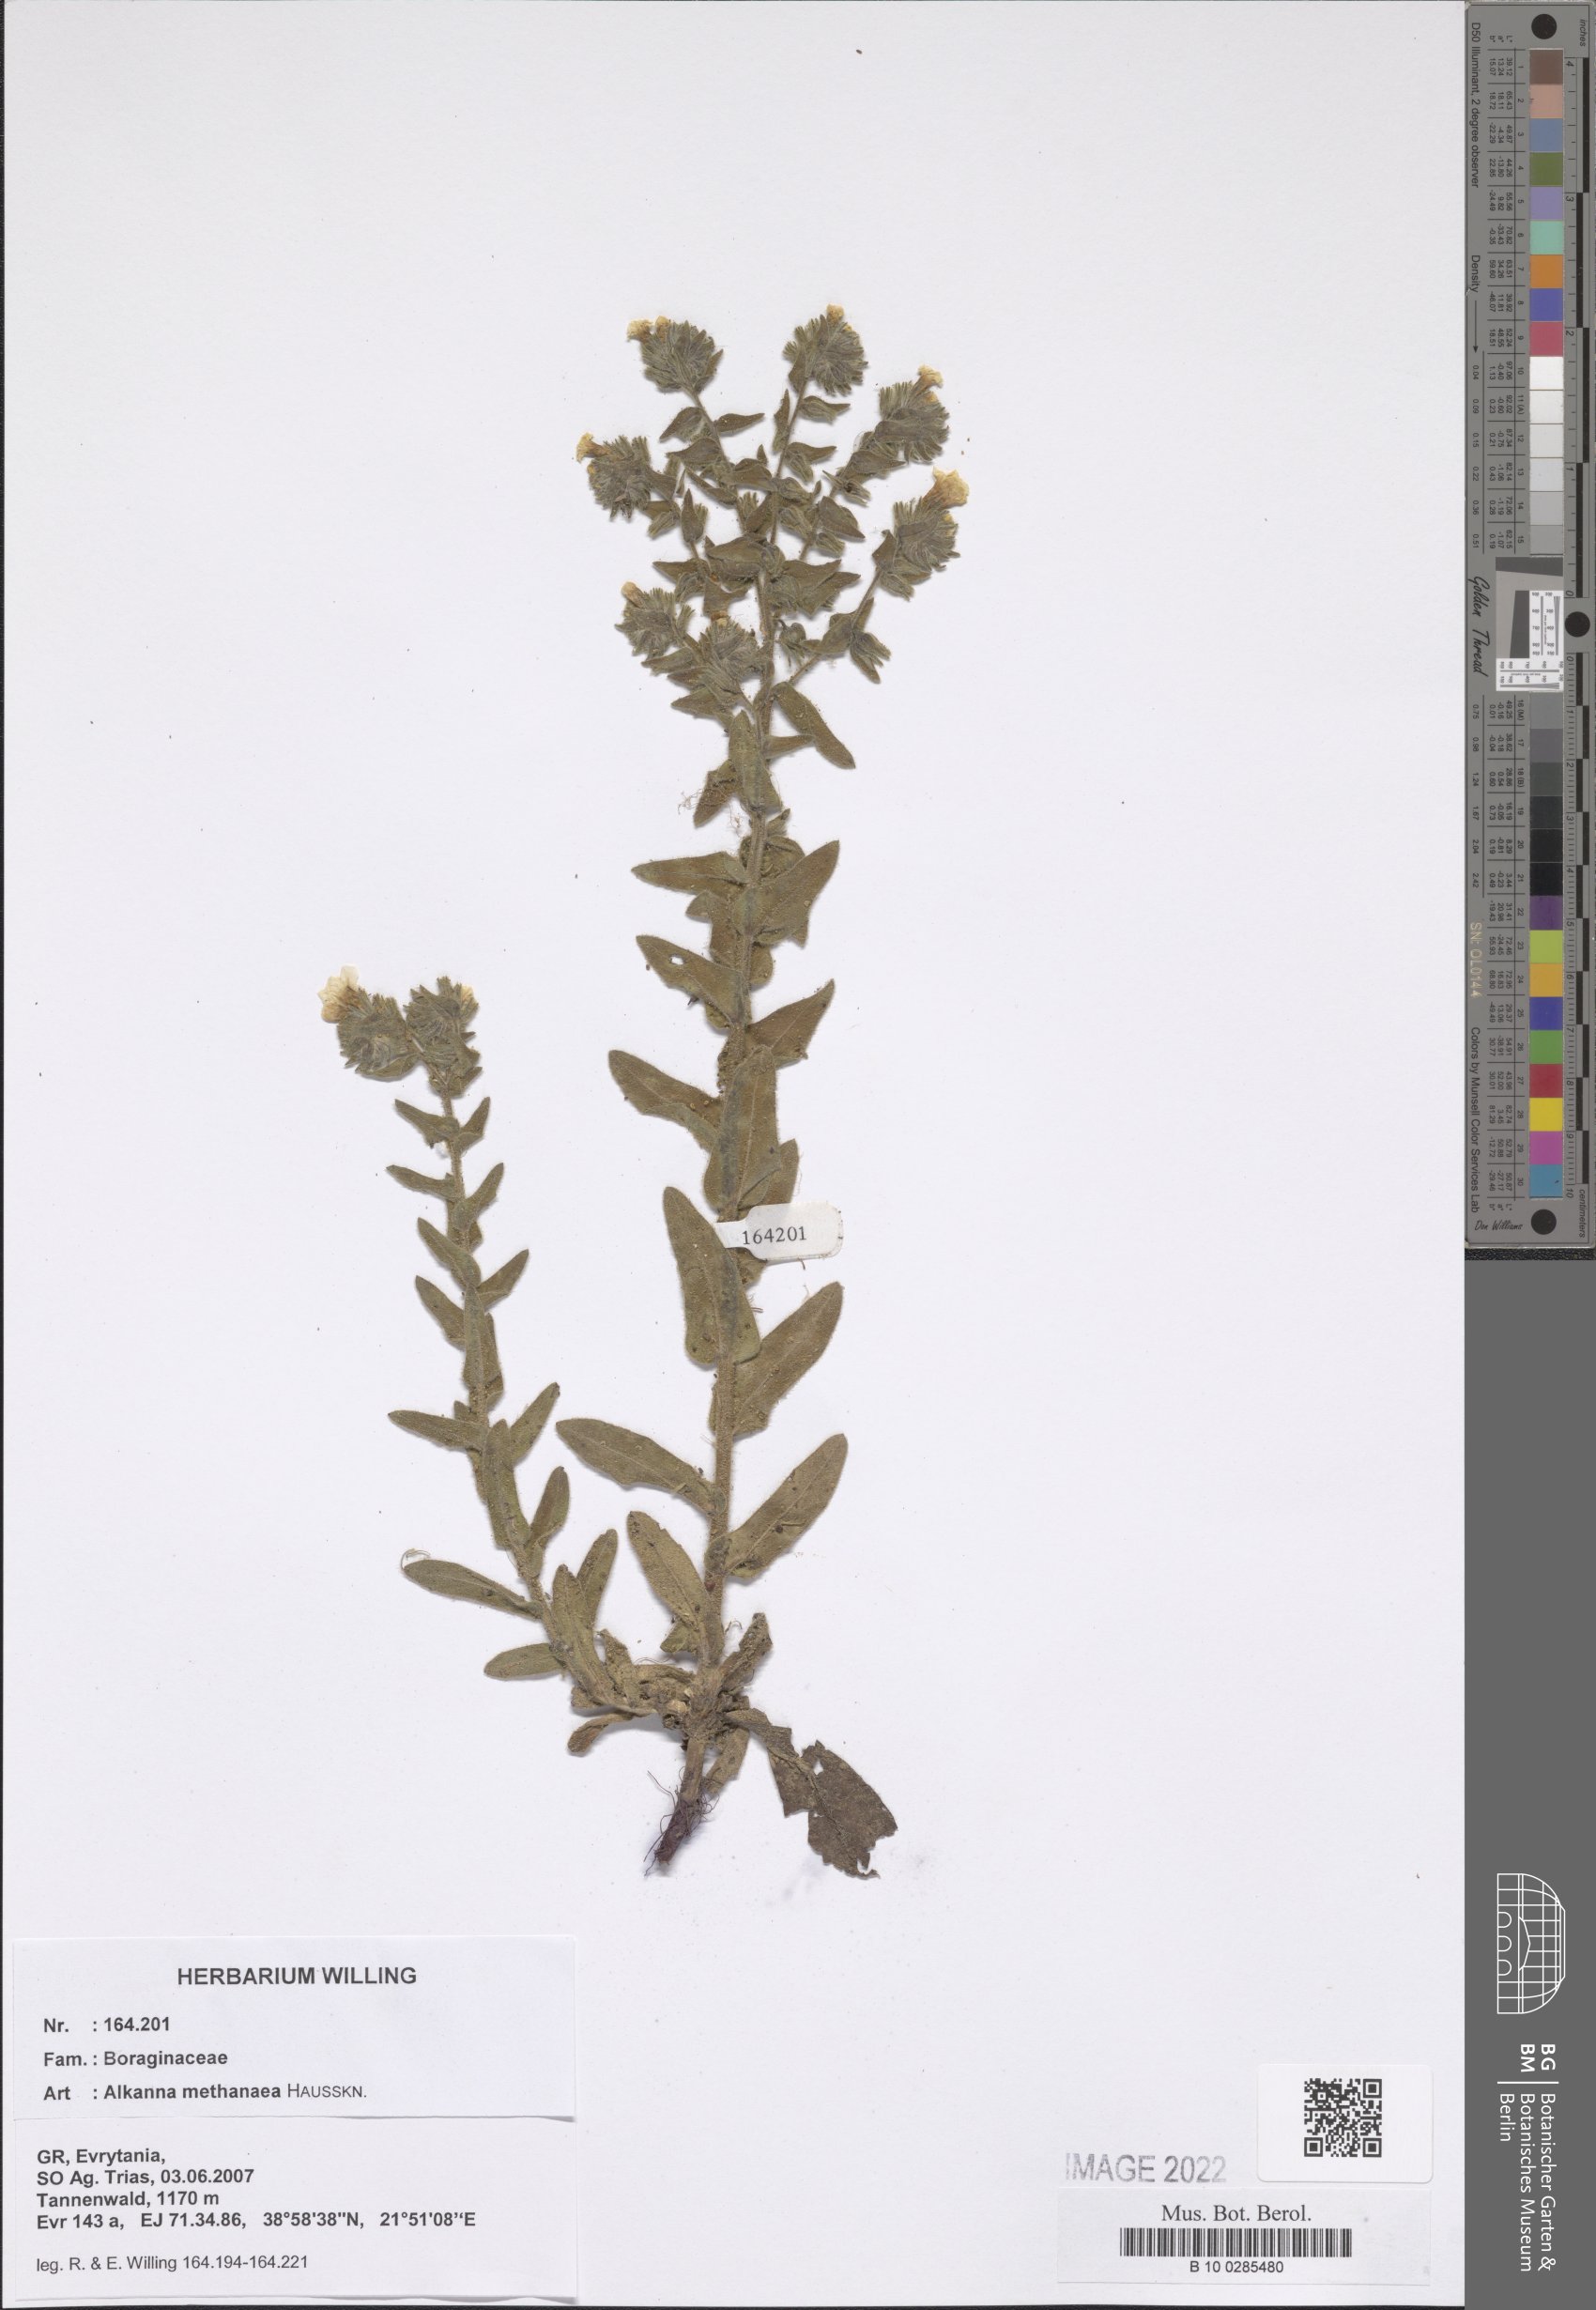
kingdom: Plantae
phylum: Tracheophyta
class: Magnoliopsida
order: Boraginales
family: Boraginaceae
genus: Alkanna
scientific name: Alkanna methanaea
